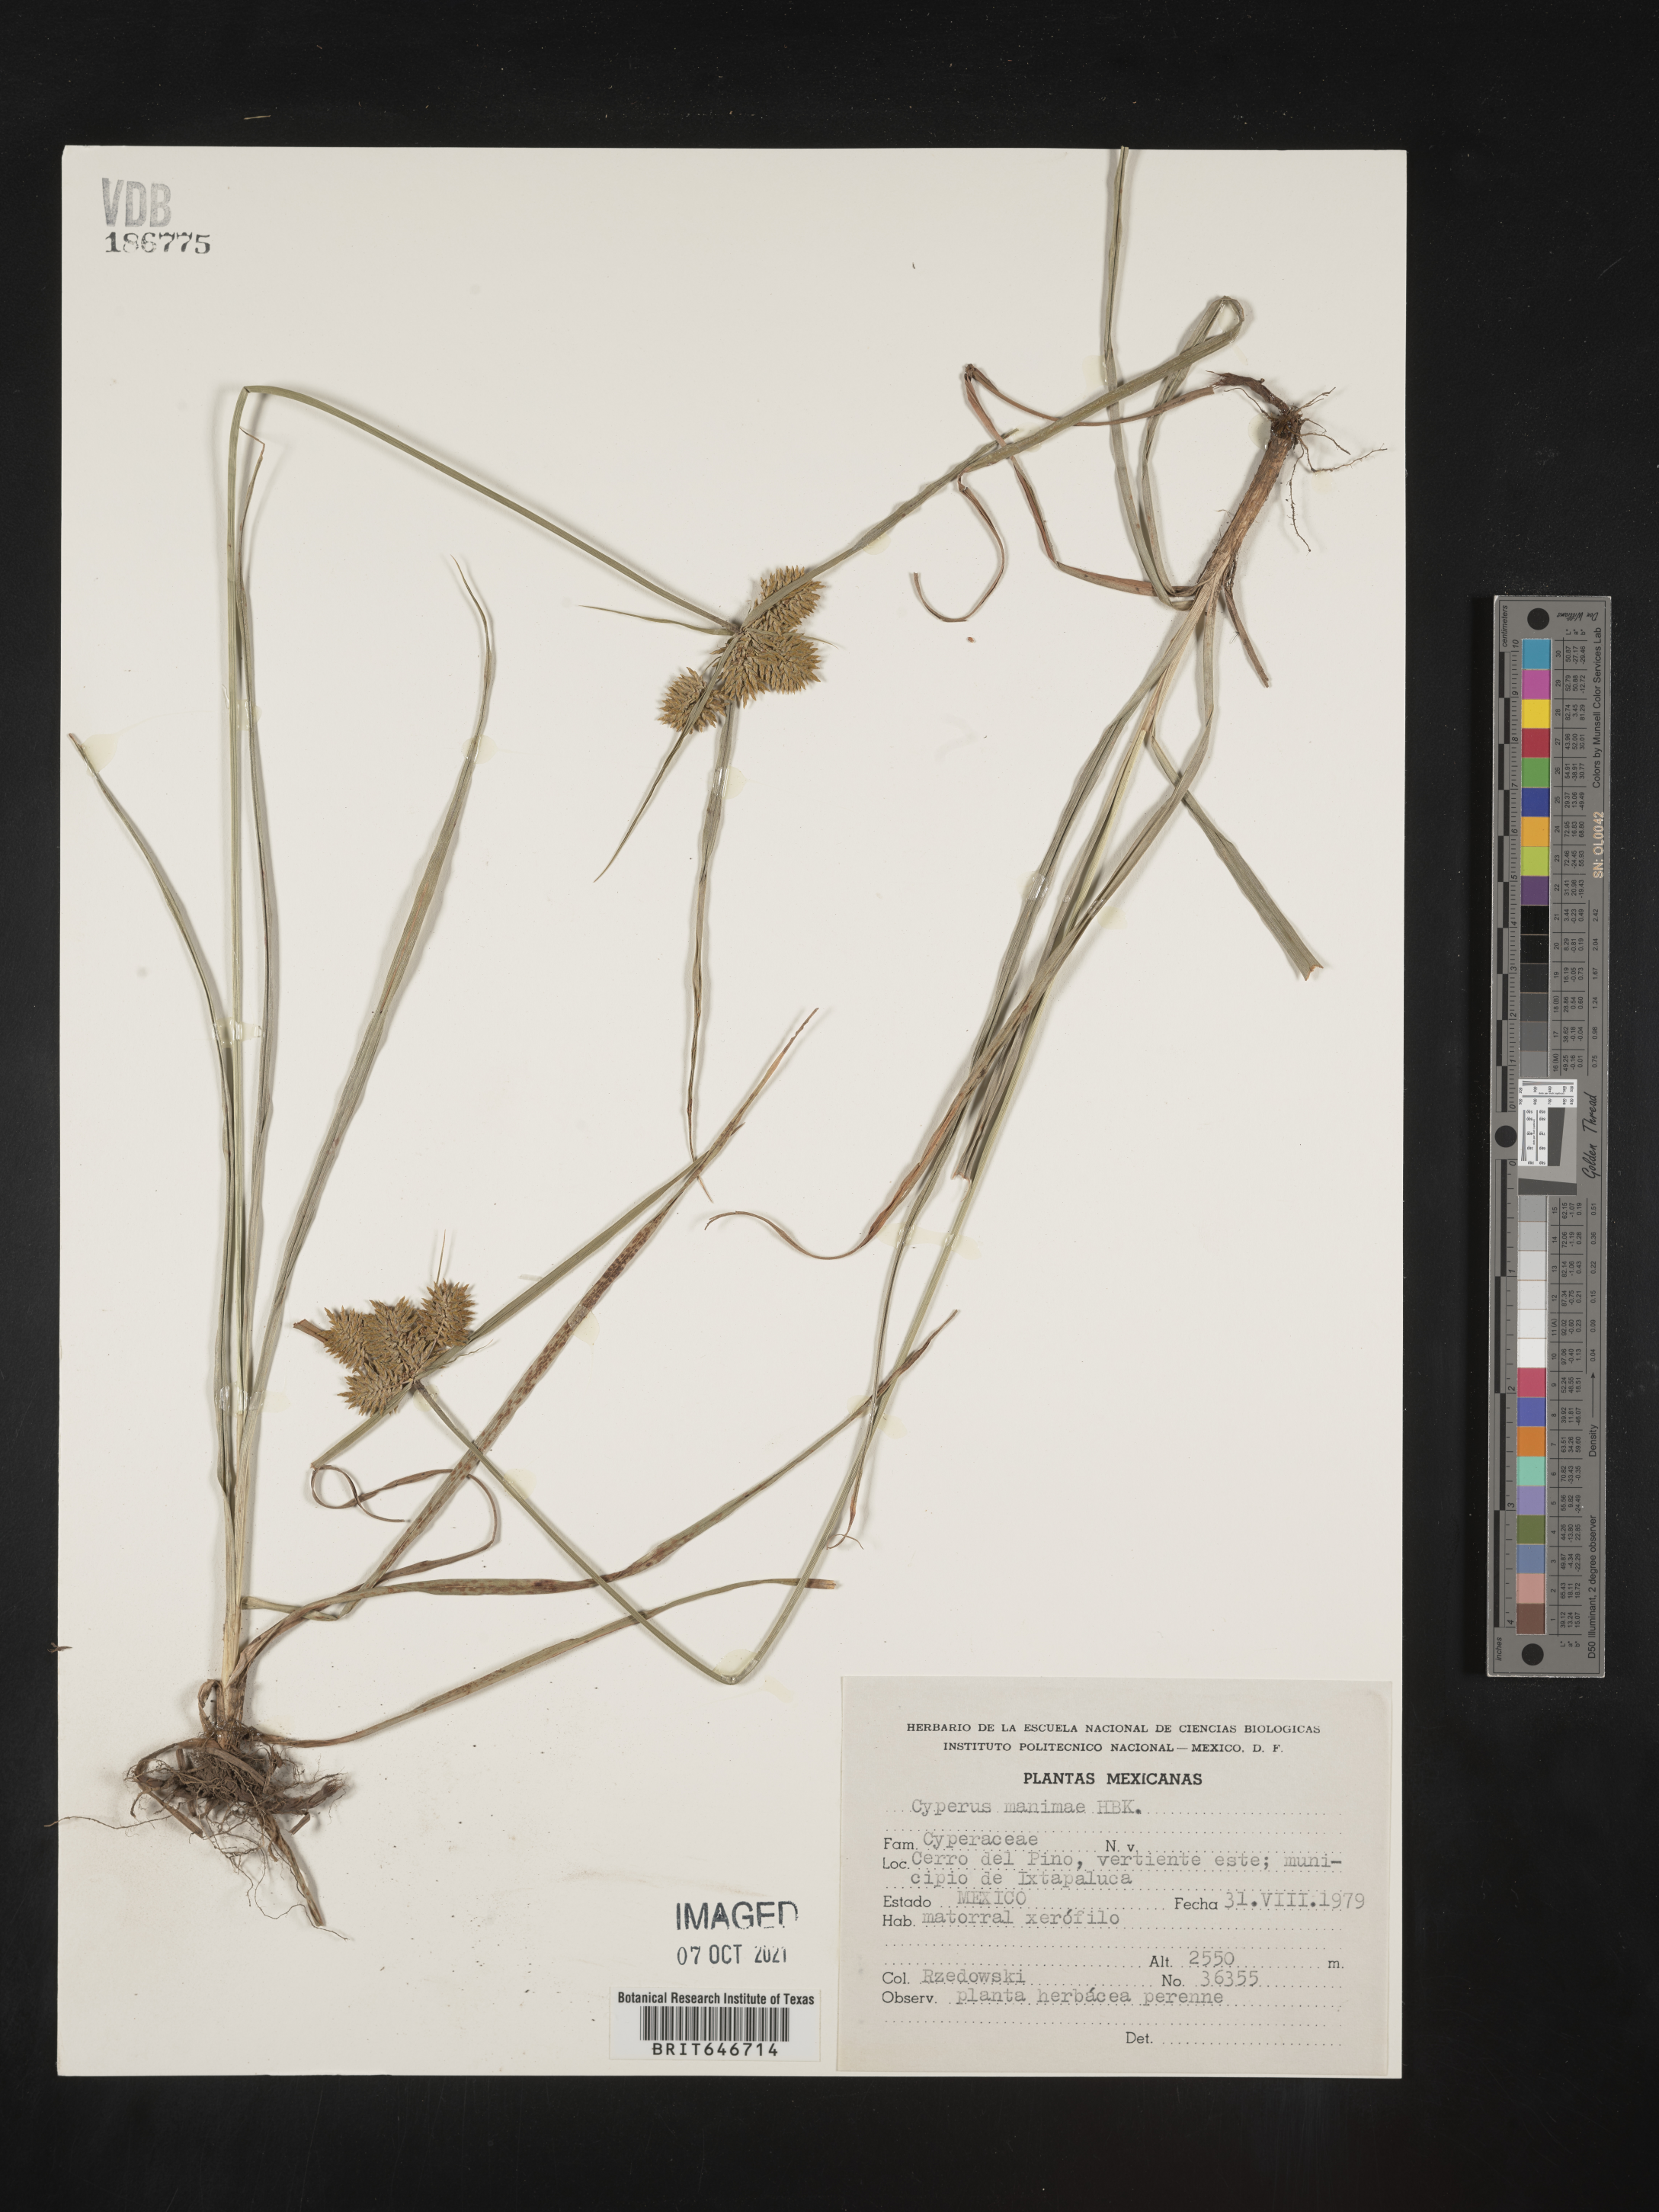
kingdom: Plantae
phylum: Tracheophyta
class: Liliopsida
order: Poales
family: Cyperaceae
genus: Cyperus
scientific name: Cyperus
